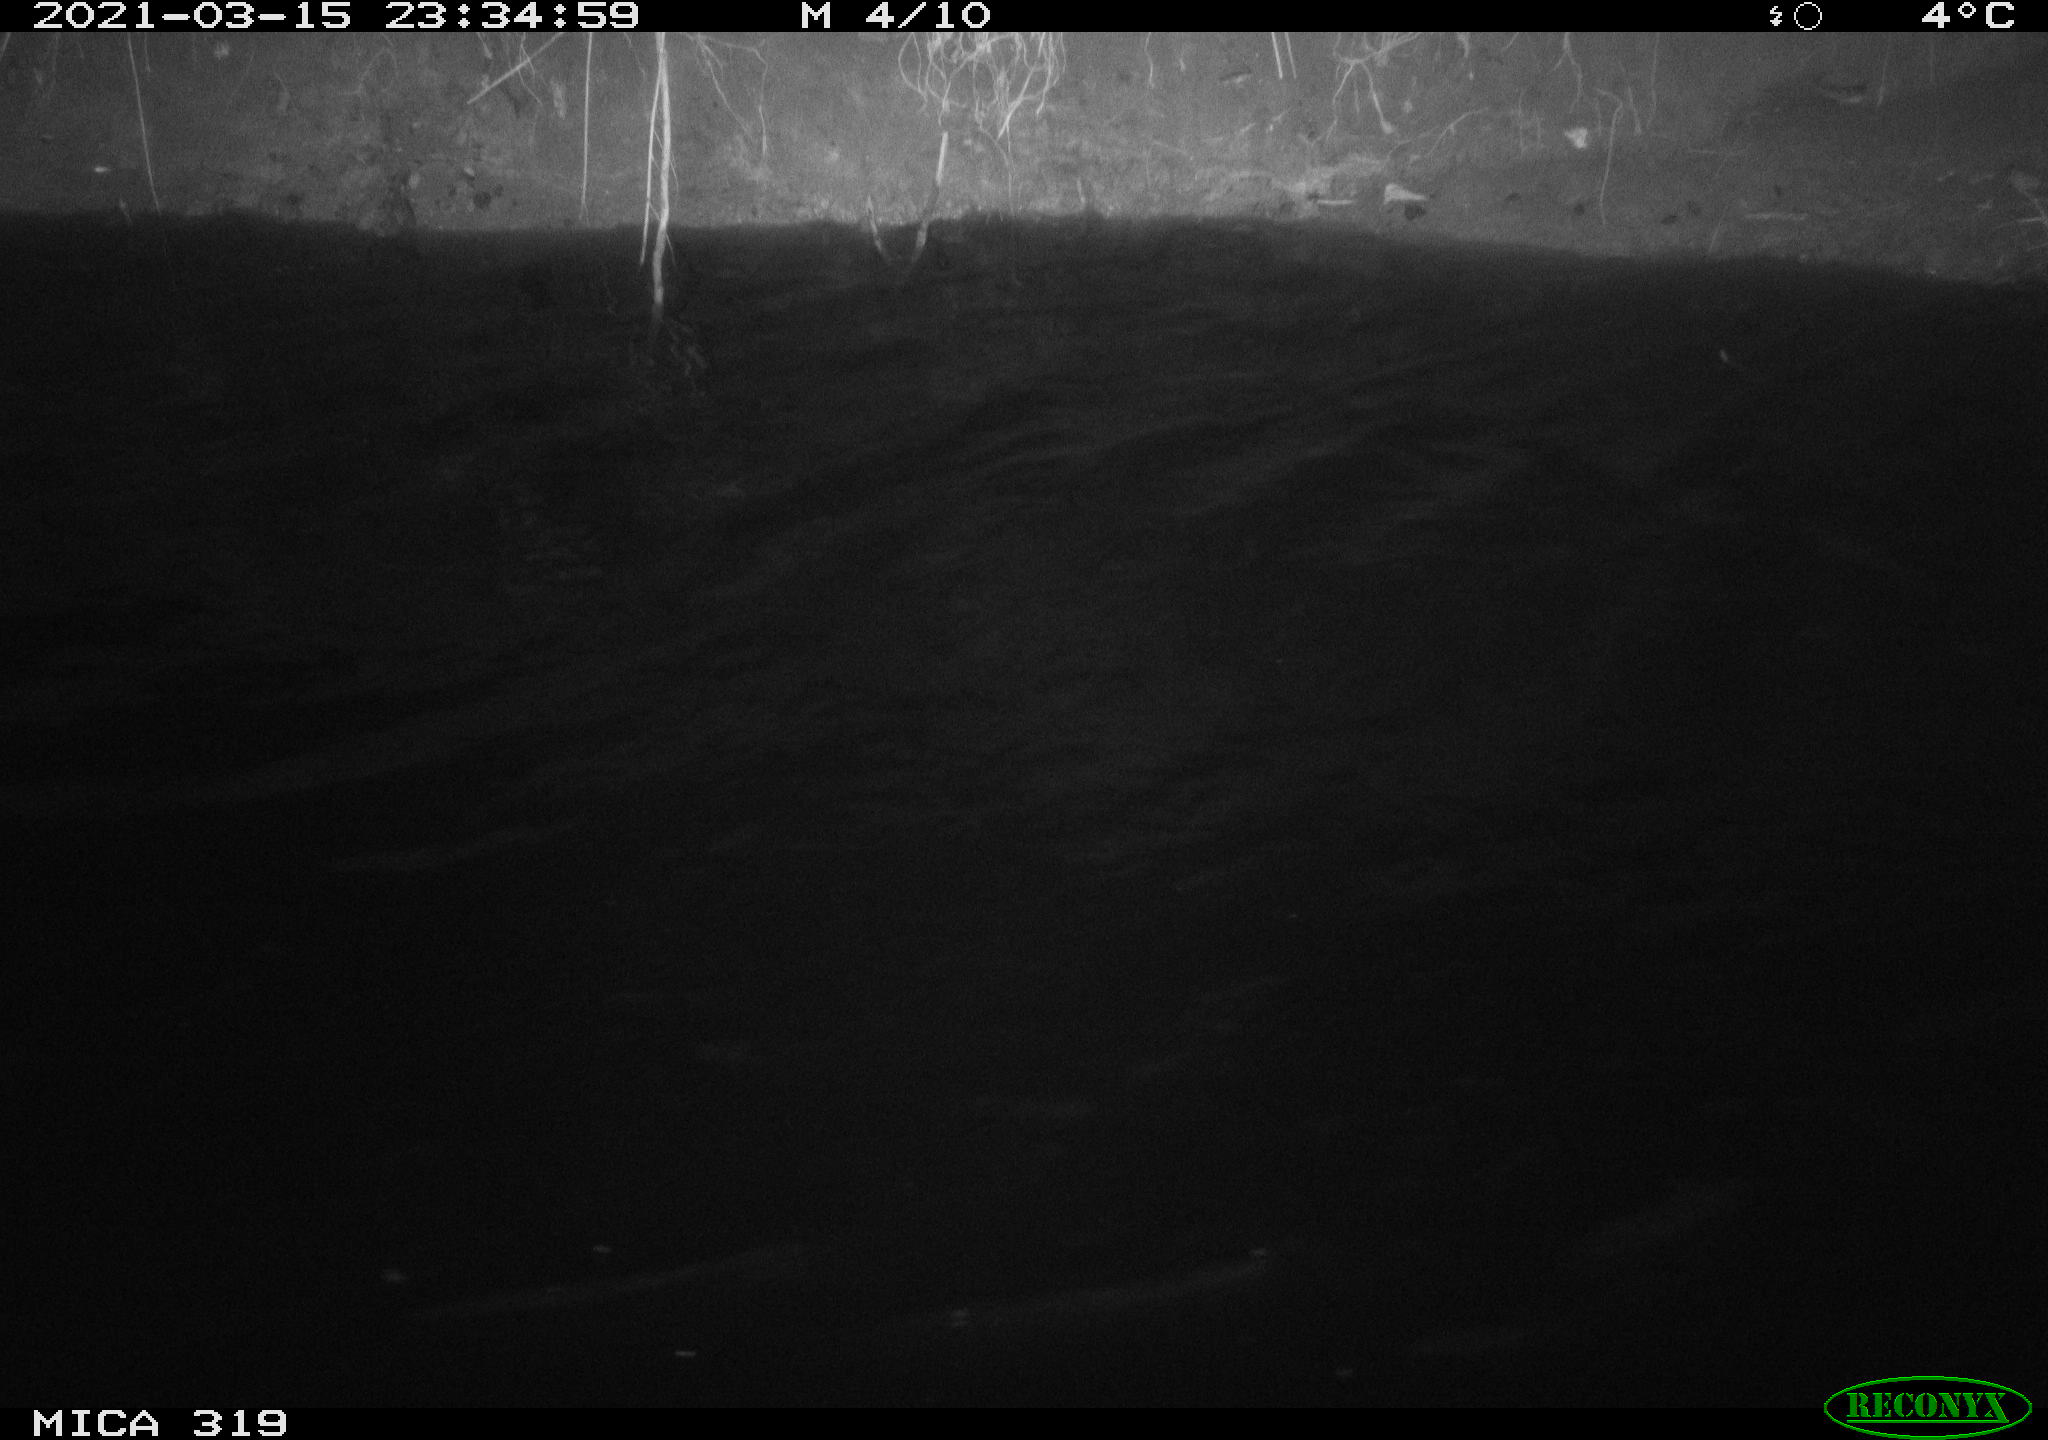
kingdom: Animalia
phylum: Chordata
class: Aves
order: Anseriformes
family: Anatidae
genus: Anas
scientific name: Anas platyrhynchos
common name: Mallard
